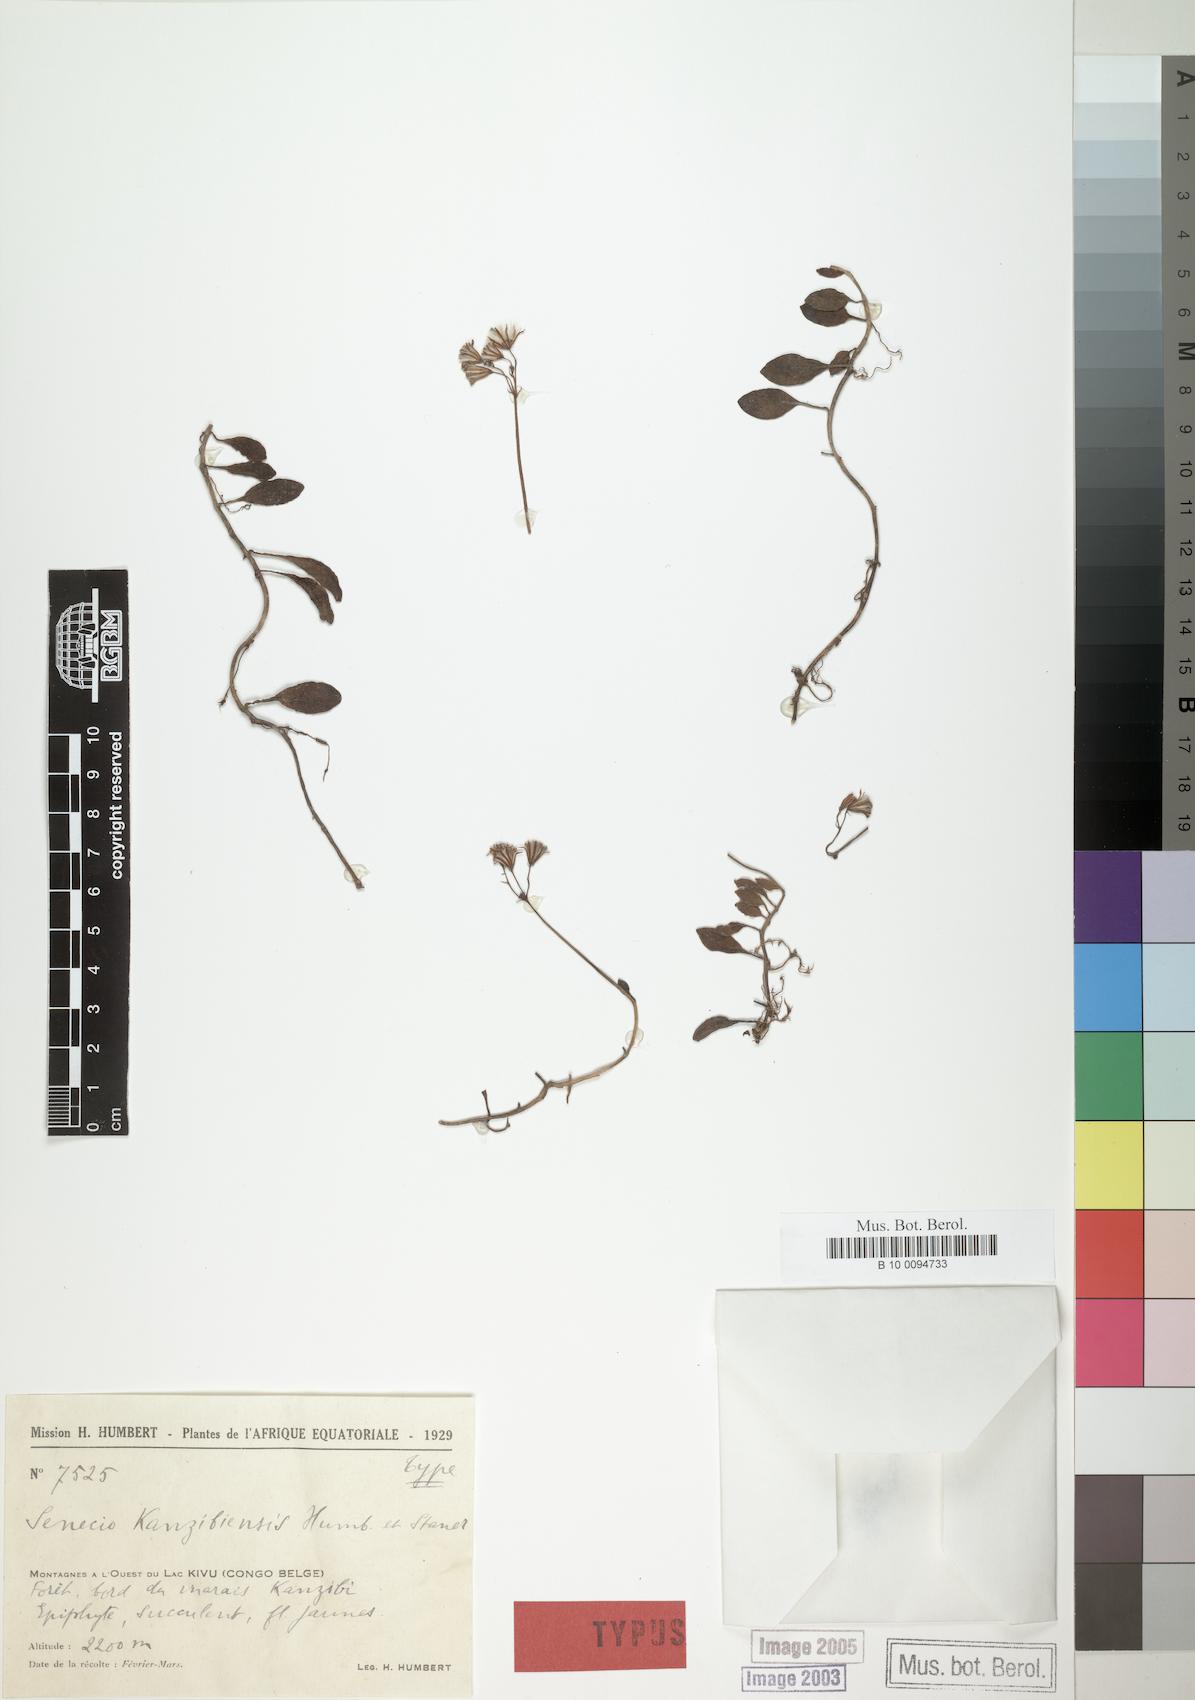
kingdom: Plantae
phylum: Tracheophyta
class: Magnoliopsida
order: Asterales
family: Asteraceae
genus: Solanecio
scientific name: Solanecio kanzibiensis
